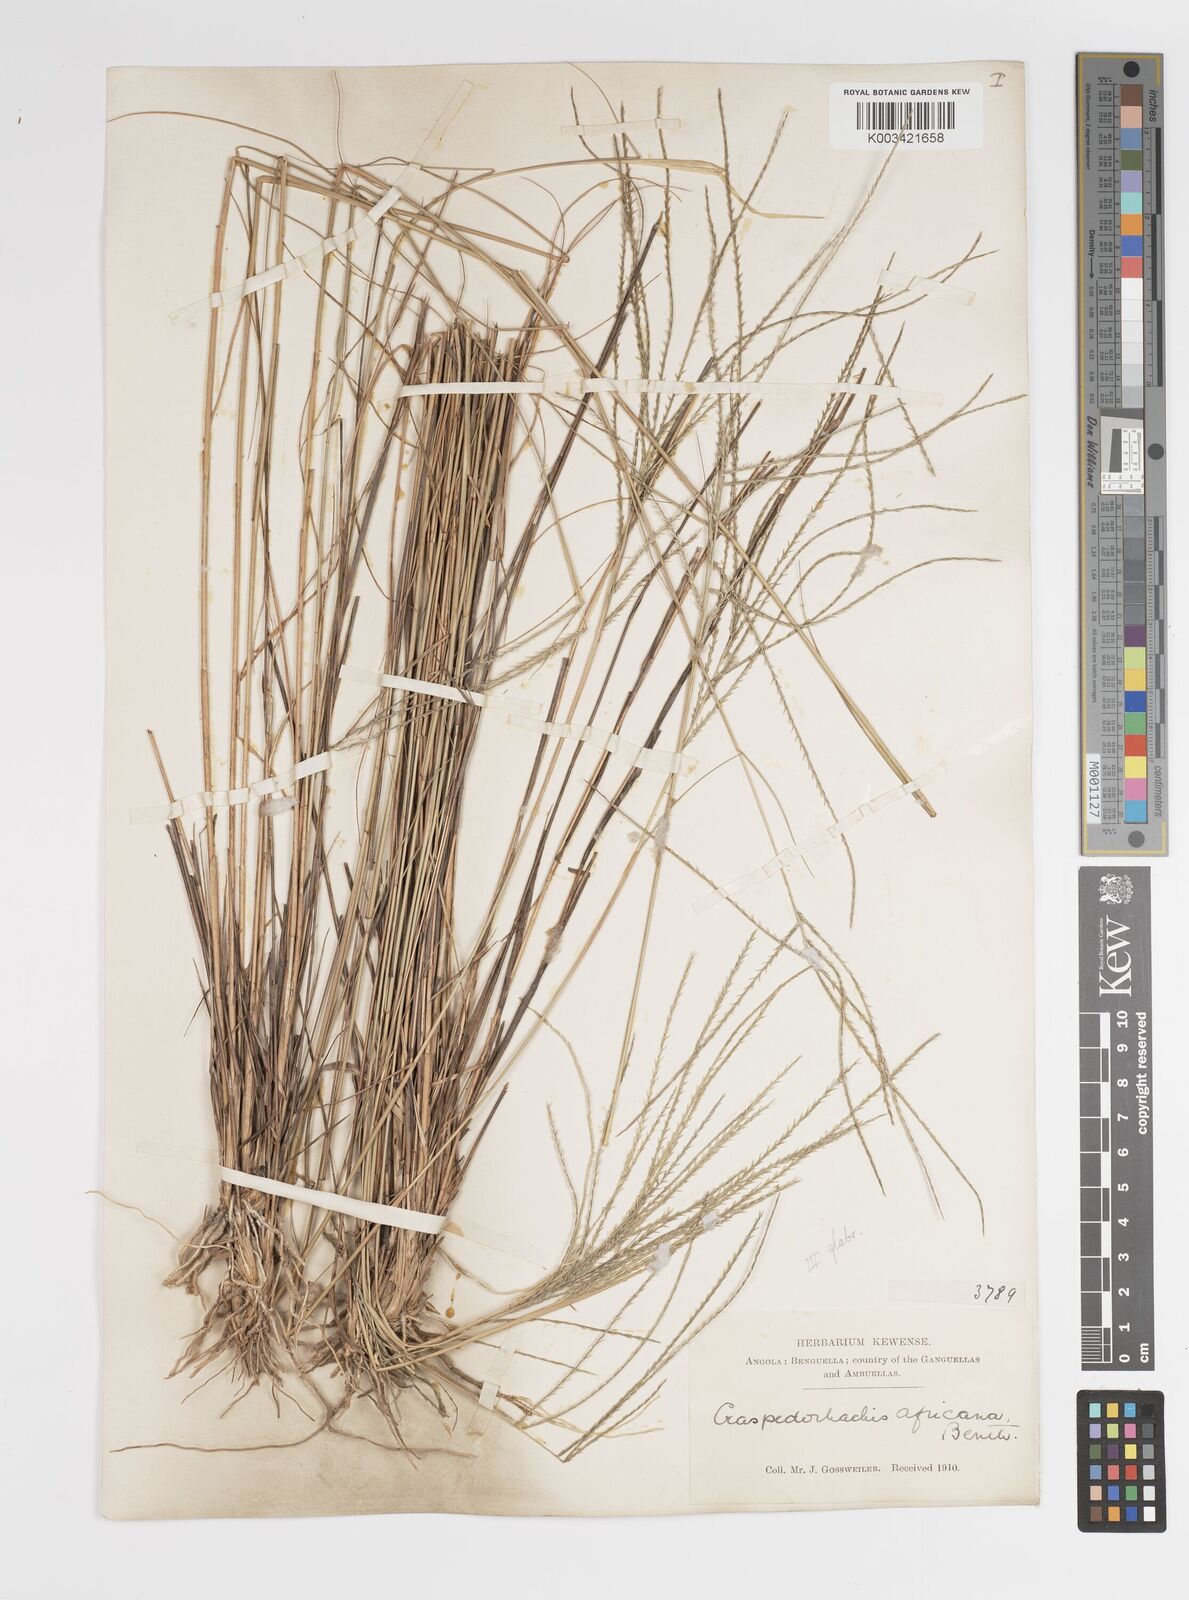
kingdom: Plantae
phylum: Tracheophyta
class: Liliopsida
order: Poales
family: Poaceae
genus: Craspedorhachis
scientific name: Craspedorhachis rhodesiana
